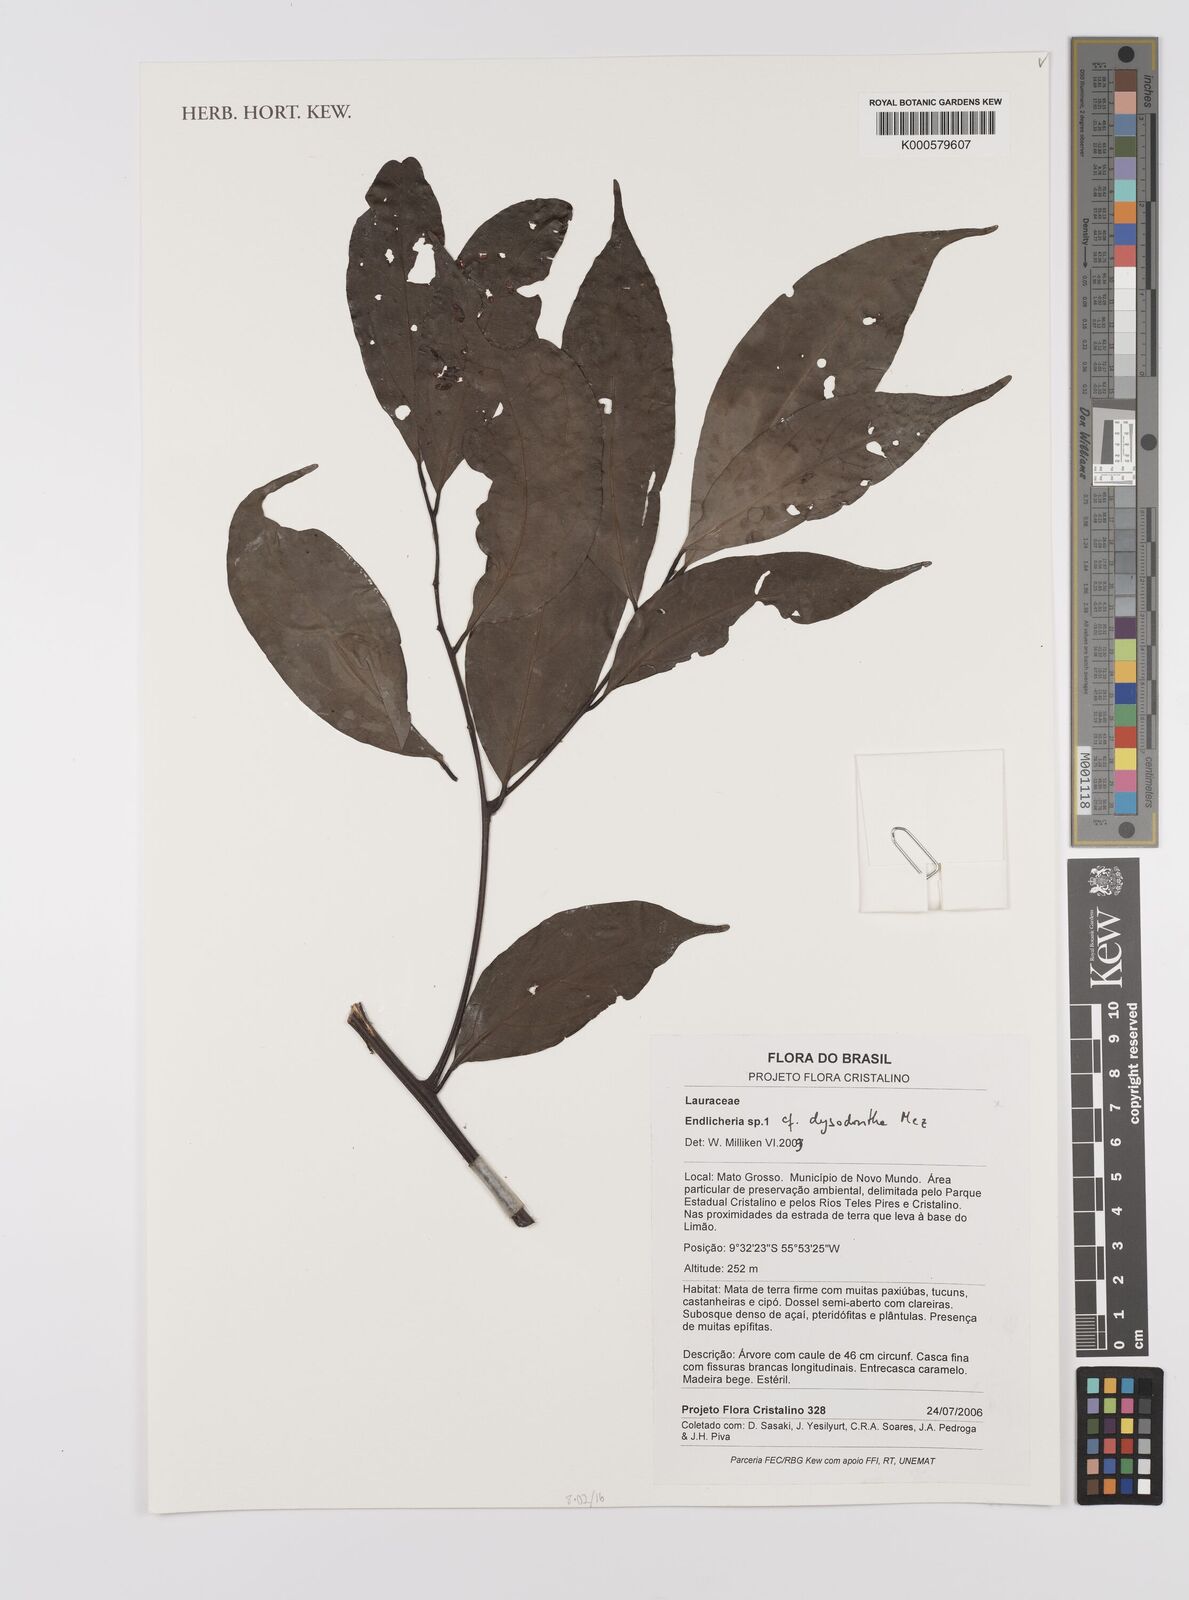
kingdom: Plantae
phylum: Tracheophyta
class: Magnoliopsida
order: Laurales
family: Lauraceae
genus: Endlicheria
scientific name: Endlicheria dysodantha
